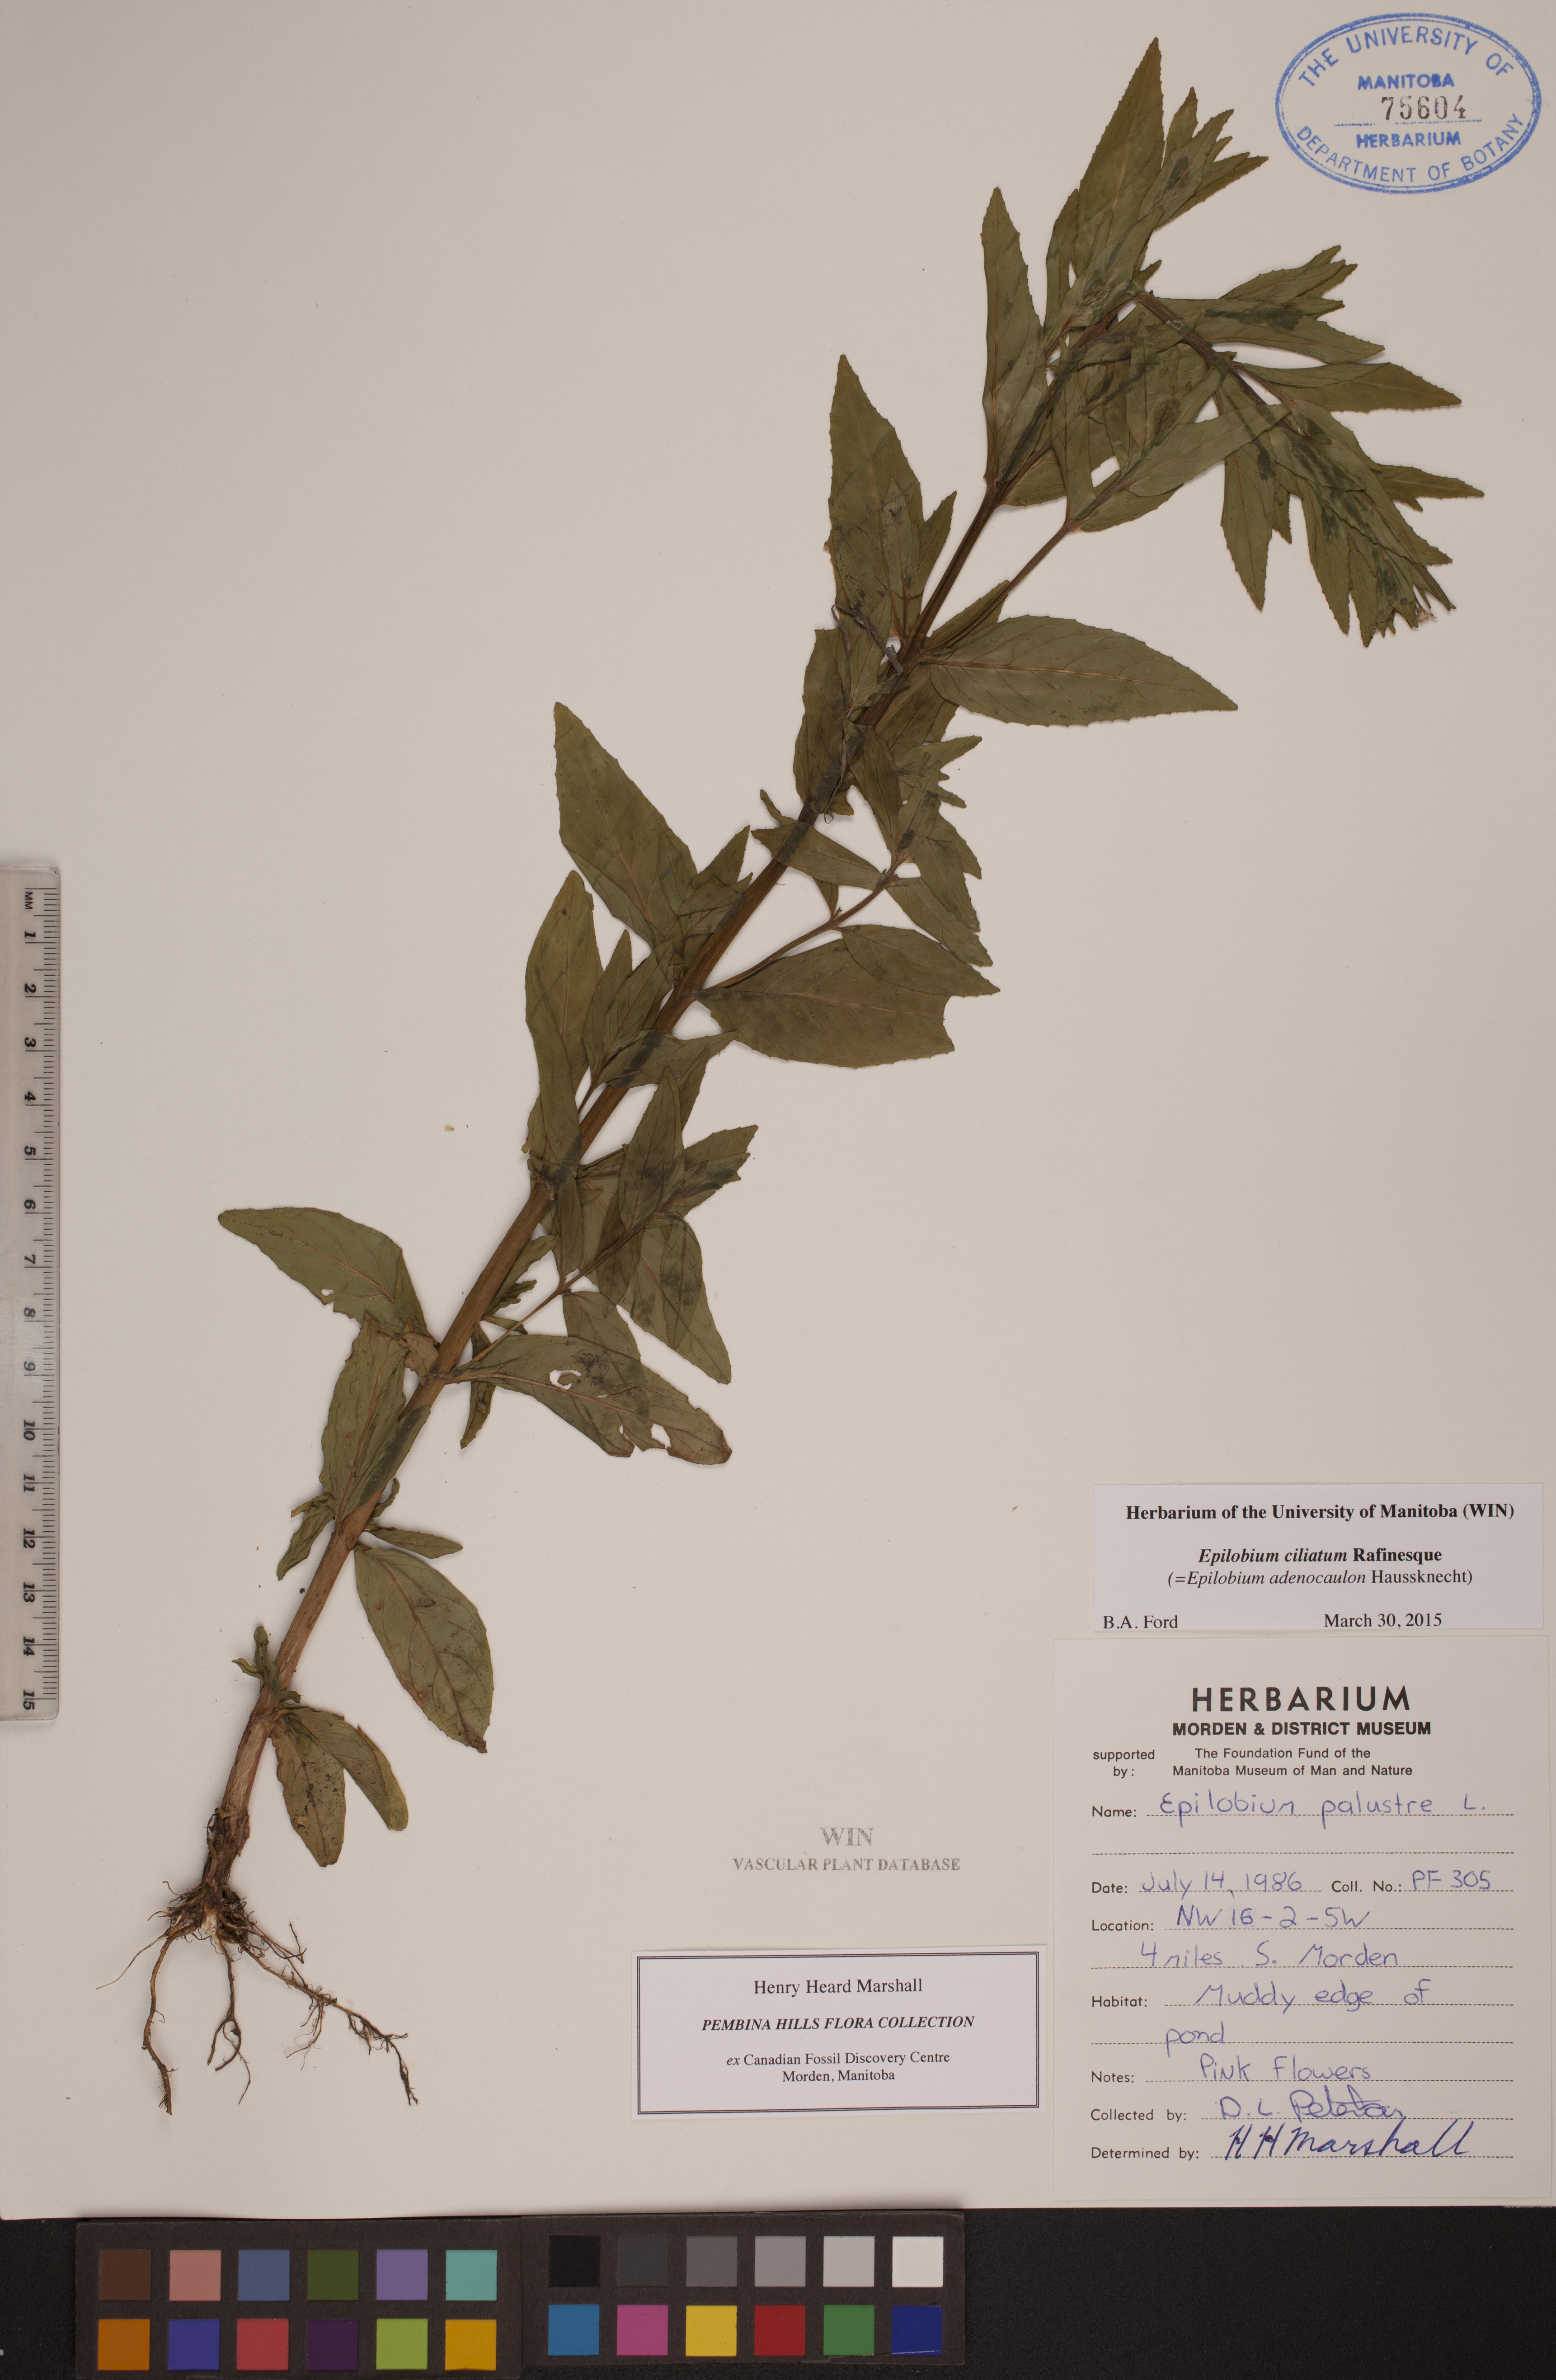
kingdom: Plantae
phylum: Tracheophyta
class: Magnoliopsida
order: Myrtales
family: Onagraceae
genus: Epilobium
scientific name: Epilobium ciliatum
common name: American willowherb
